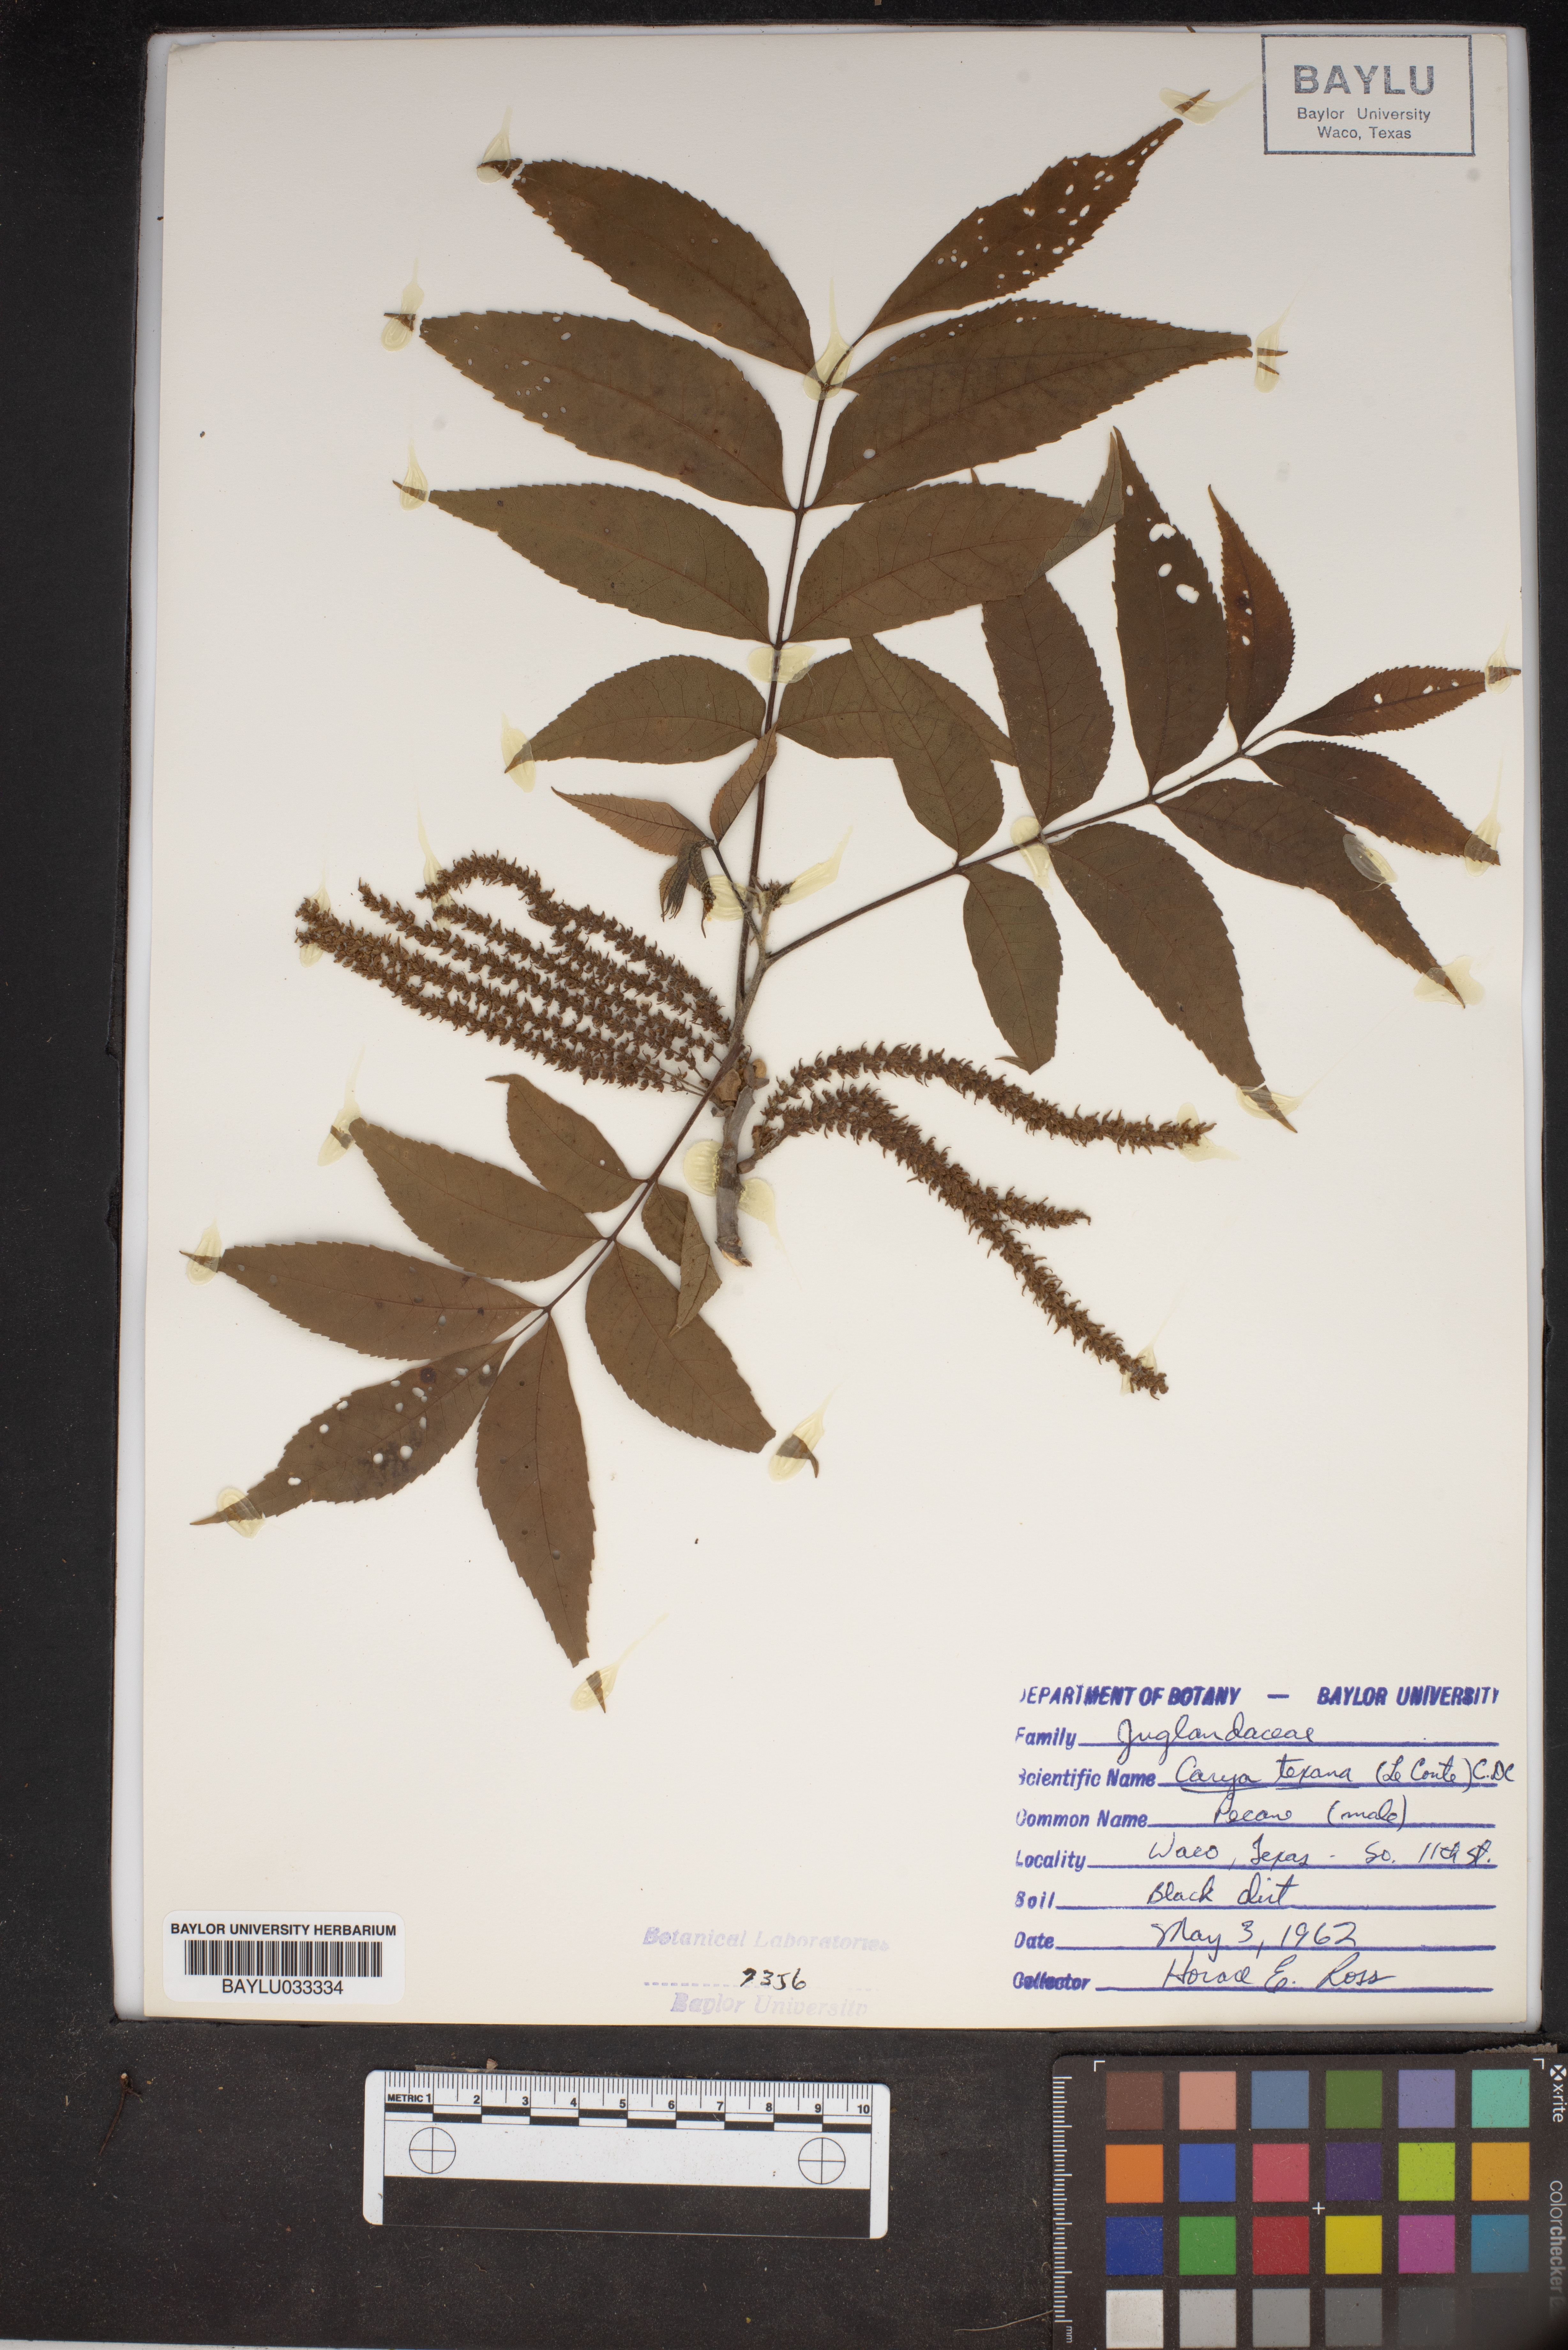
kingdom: Plantae
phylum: Tracheophyta
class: Magnoliopsida
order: Fagales
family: Juglandaceae
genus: Carya
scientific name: Carya texana
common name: Black hickory
